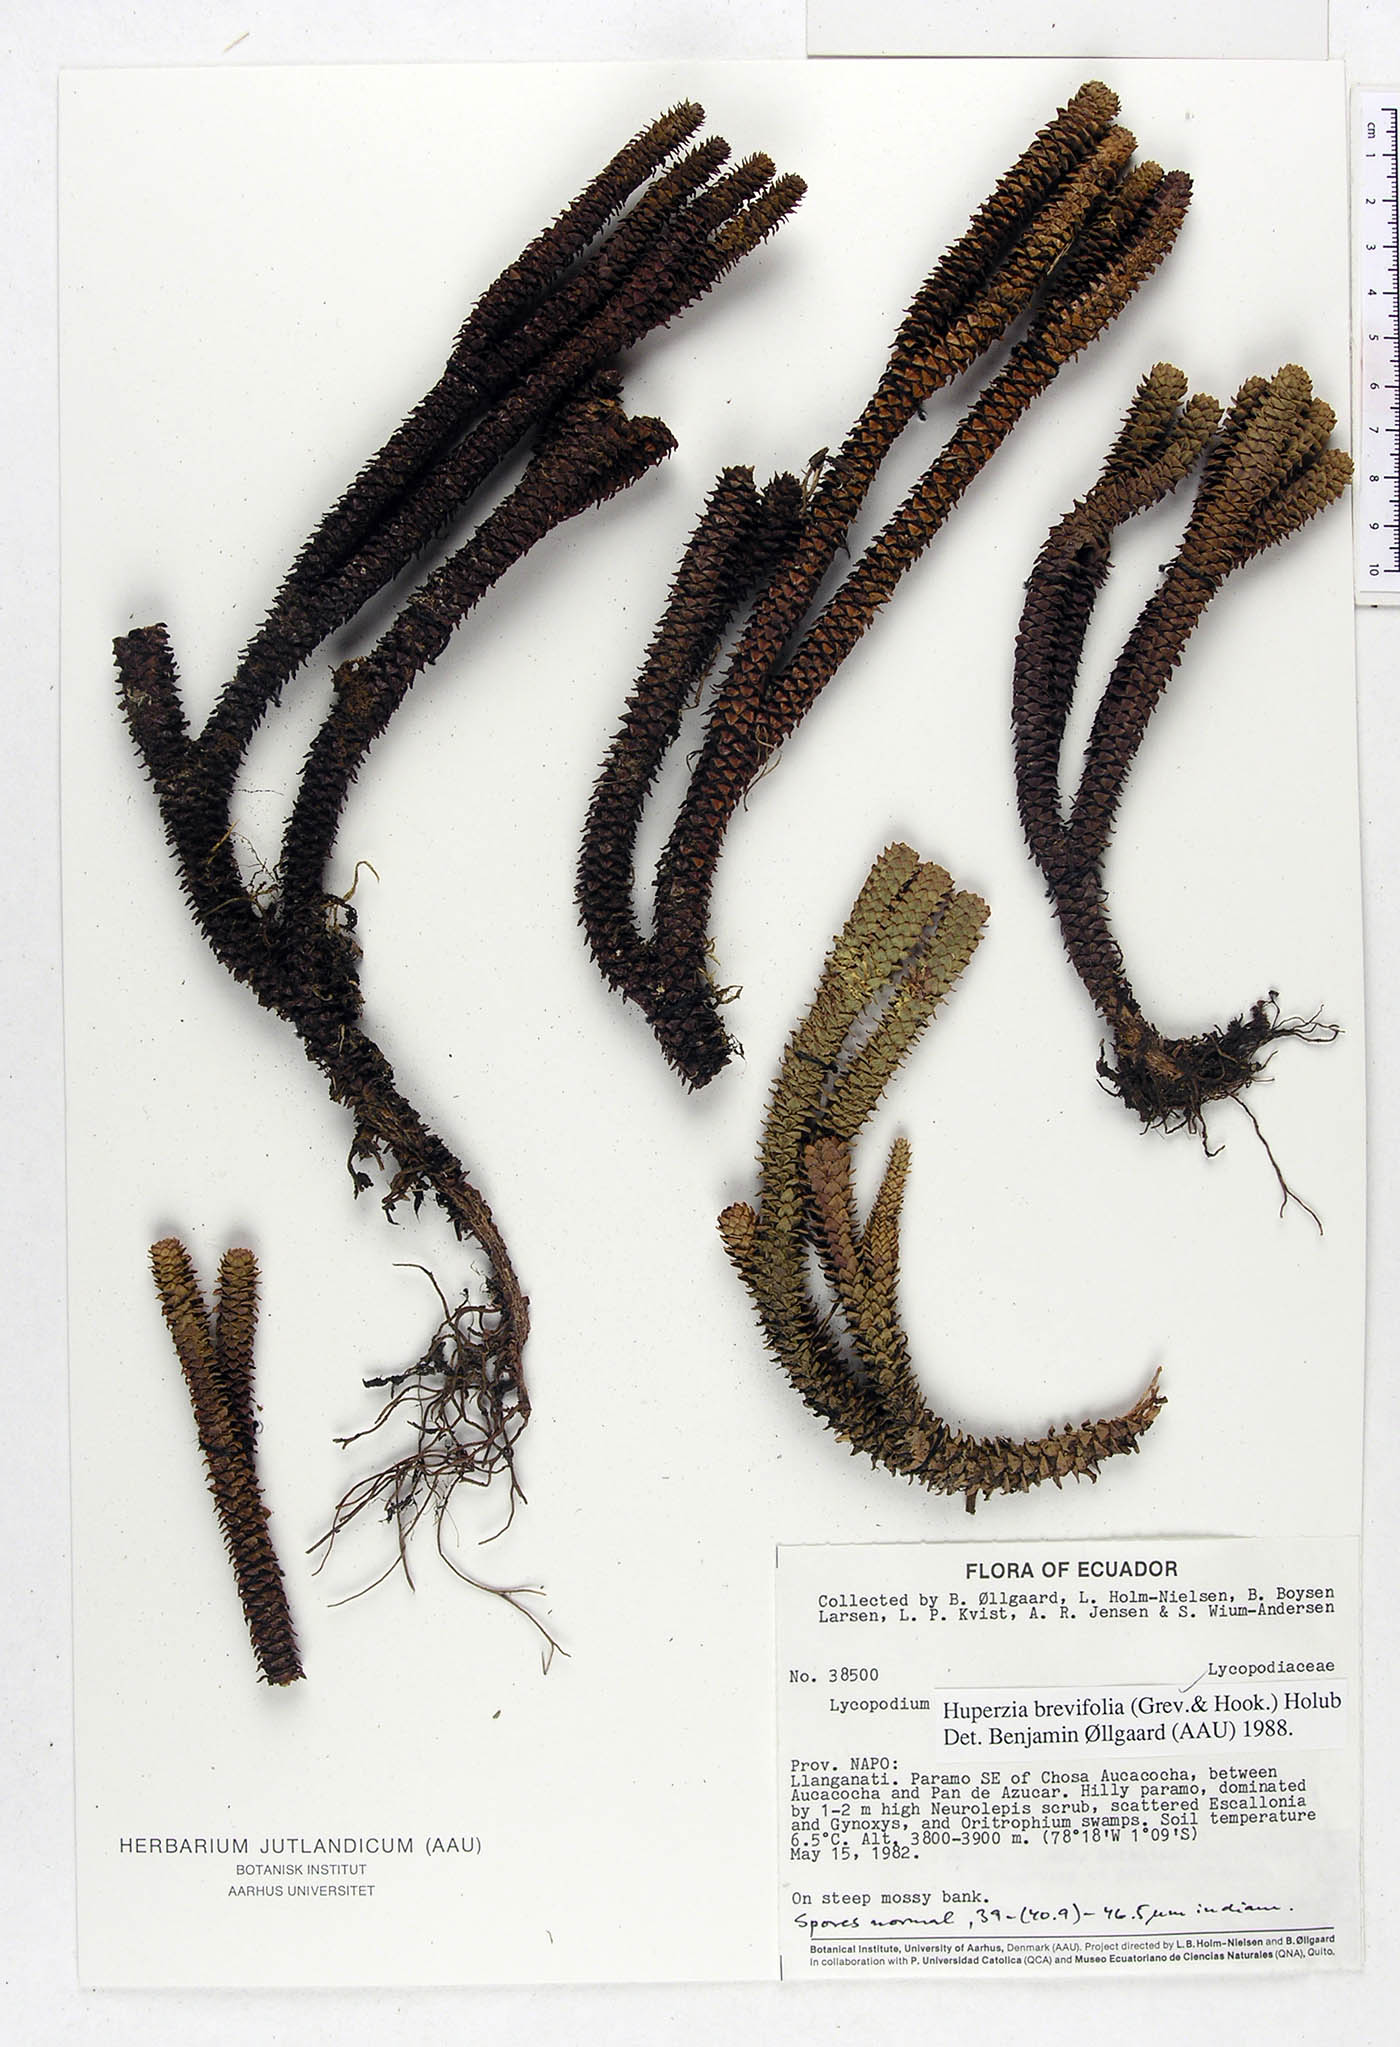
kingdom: Plantae
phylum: Tracheophyta
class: Lycopodiopsida
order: Lycopodiales
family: Lycopodiaceae
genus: Phlegmariurus
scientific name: Phlegmariurus brevifolius
